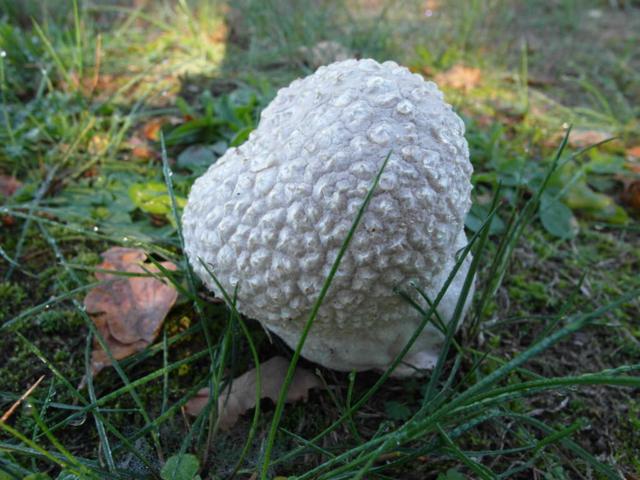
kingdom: Fungi
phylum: Basidiomycota
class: Agaricomycetes
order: Agaricales
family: Lycoperdaceae
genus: Bovistella
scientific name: Bovistella utriformis
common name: skællet støvbold
